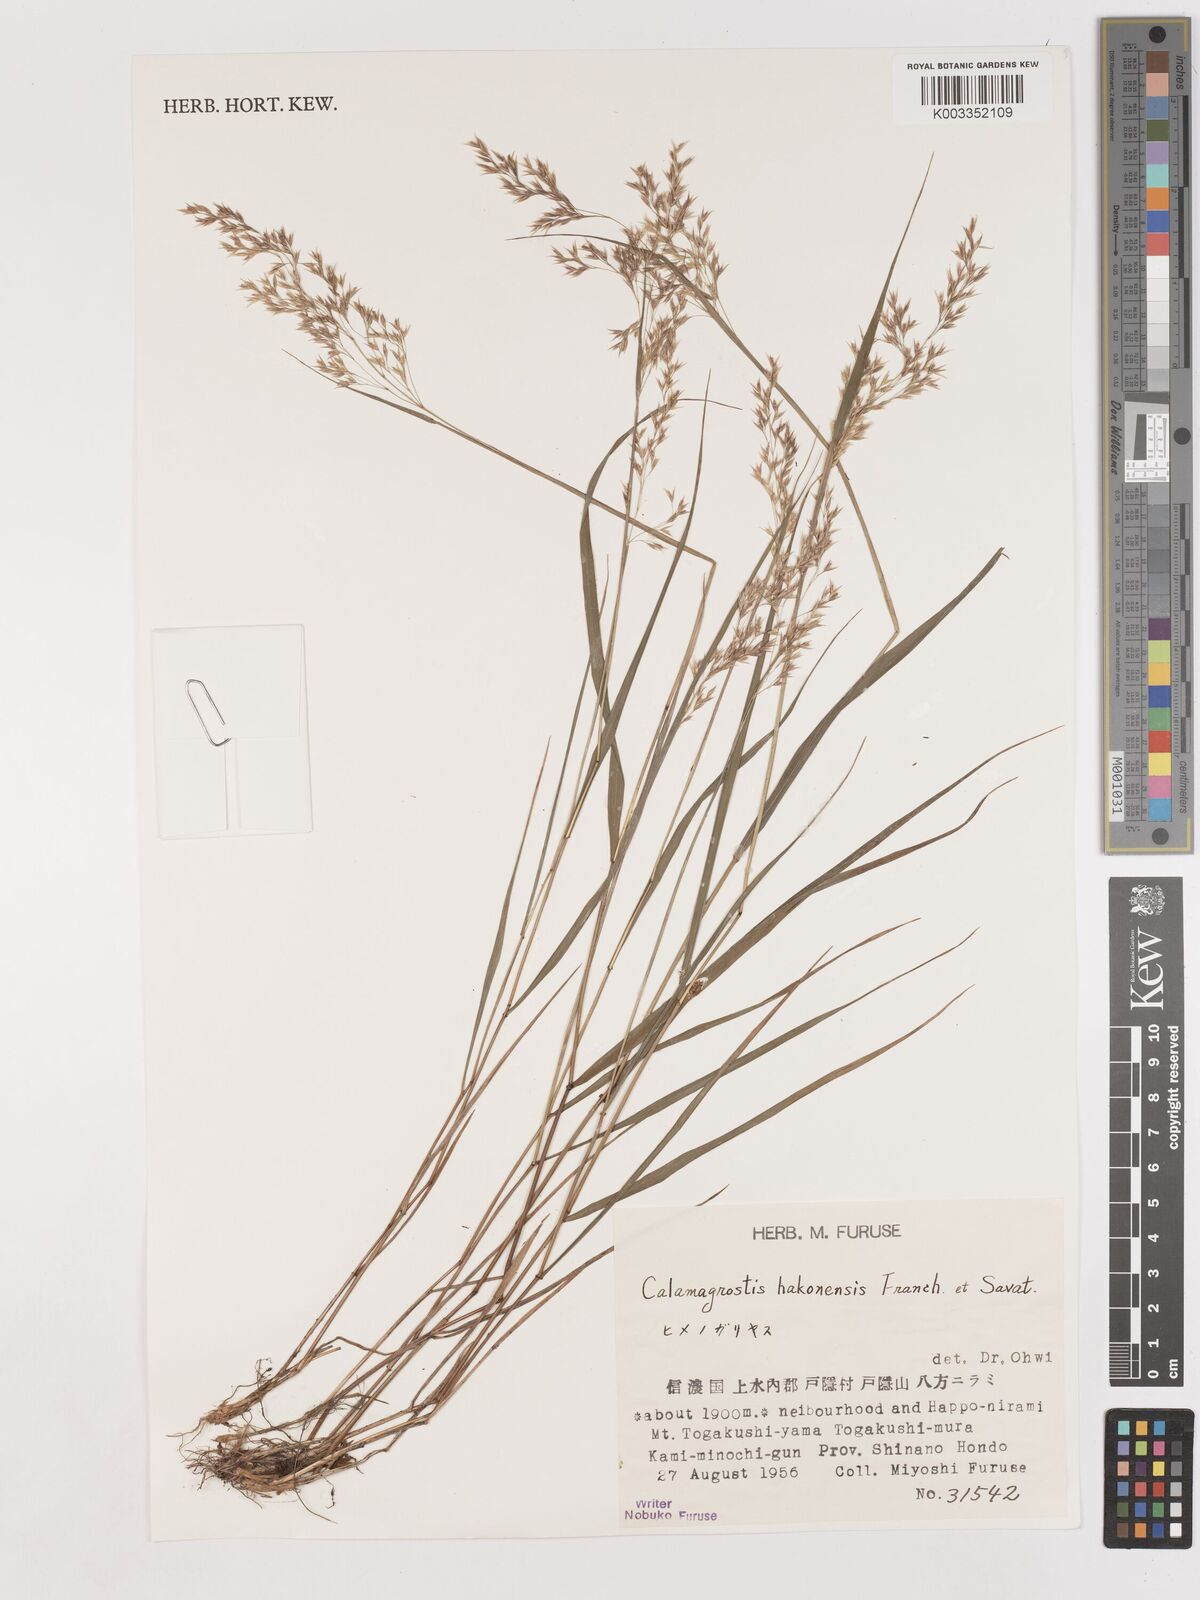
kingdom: Plantae
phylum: Tracheophyta
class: Liliopsida
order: Poales
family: Poaceae
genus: Calamagrostis
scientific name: Calamagrostis hakonensis
